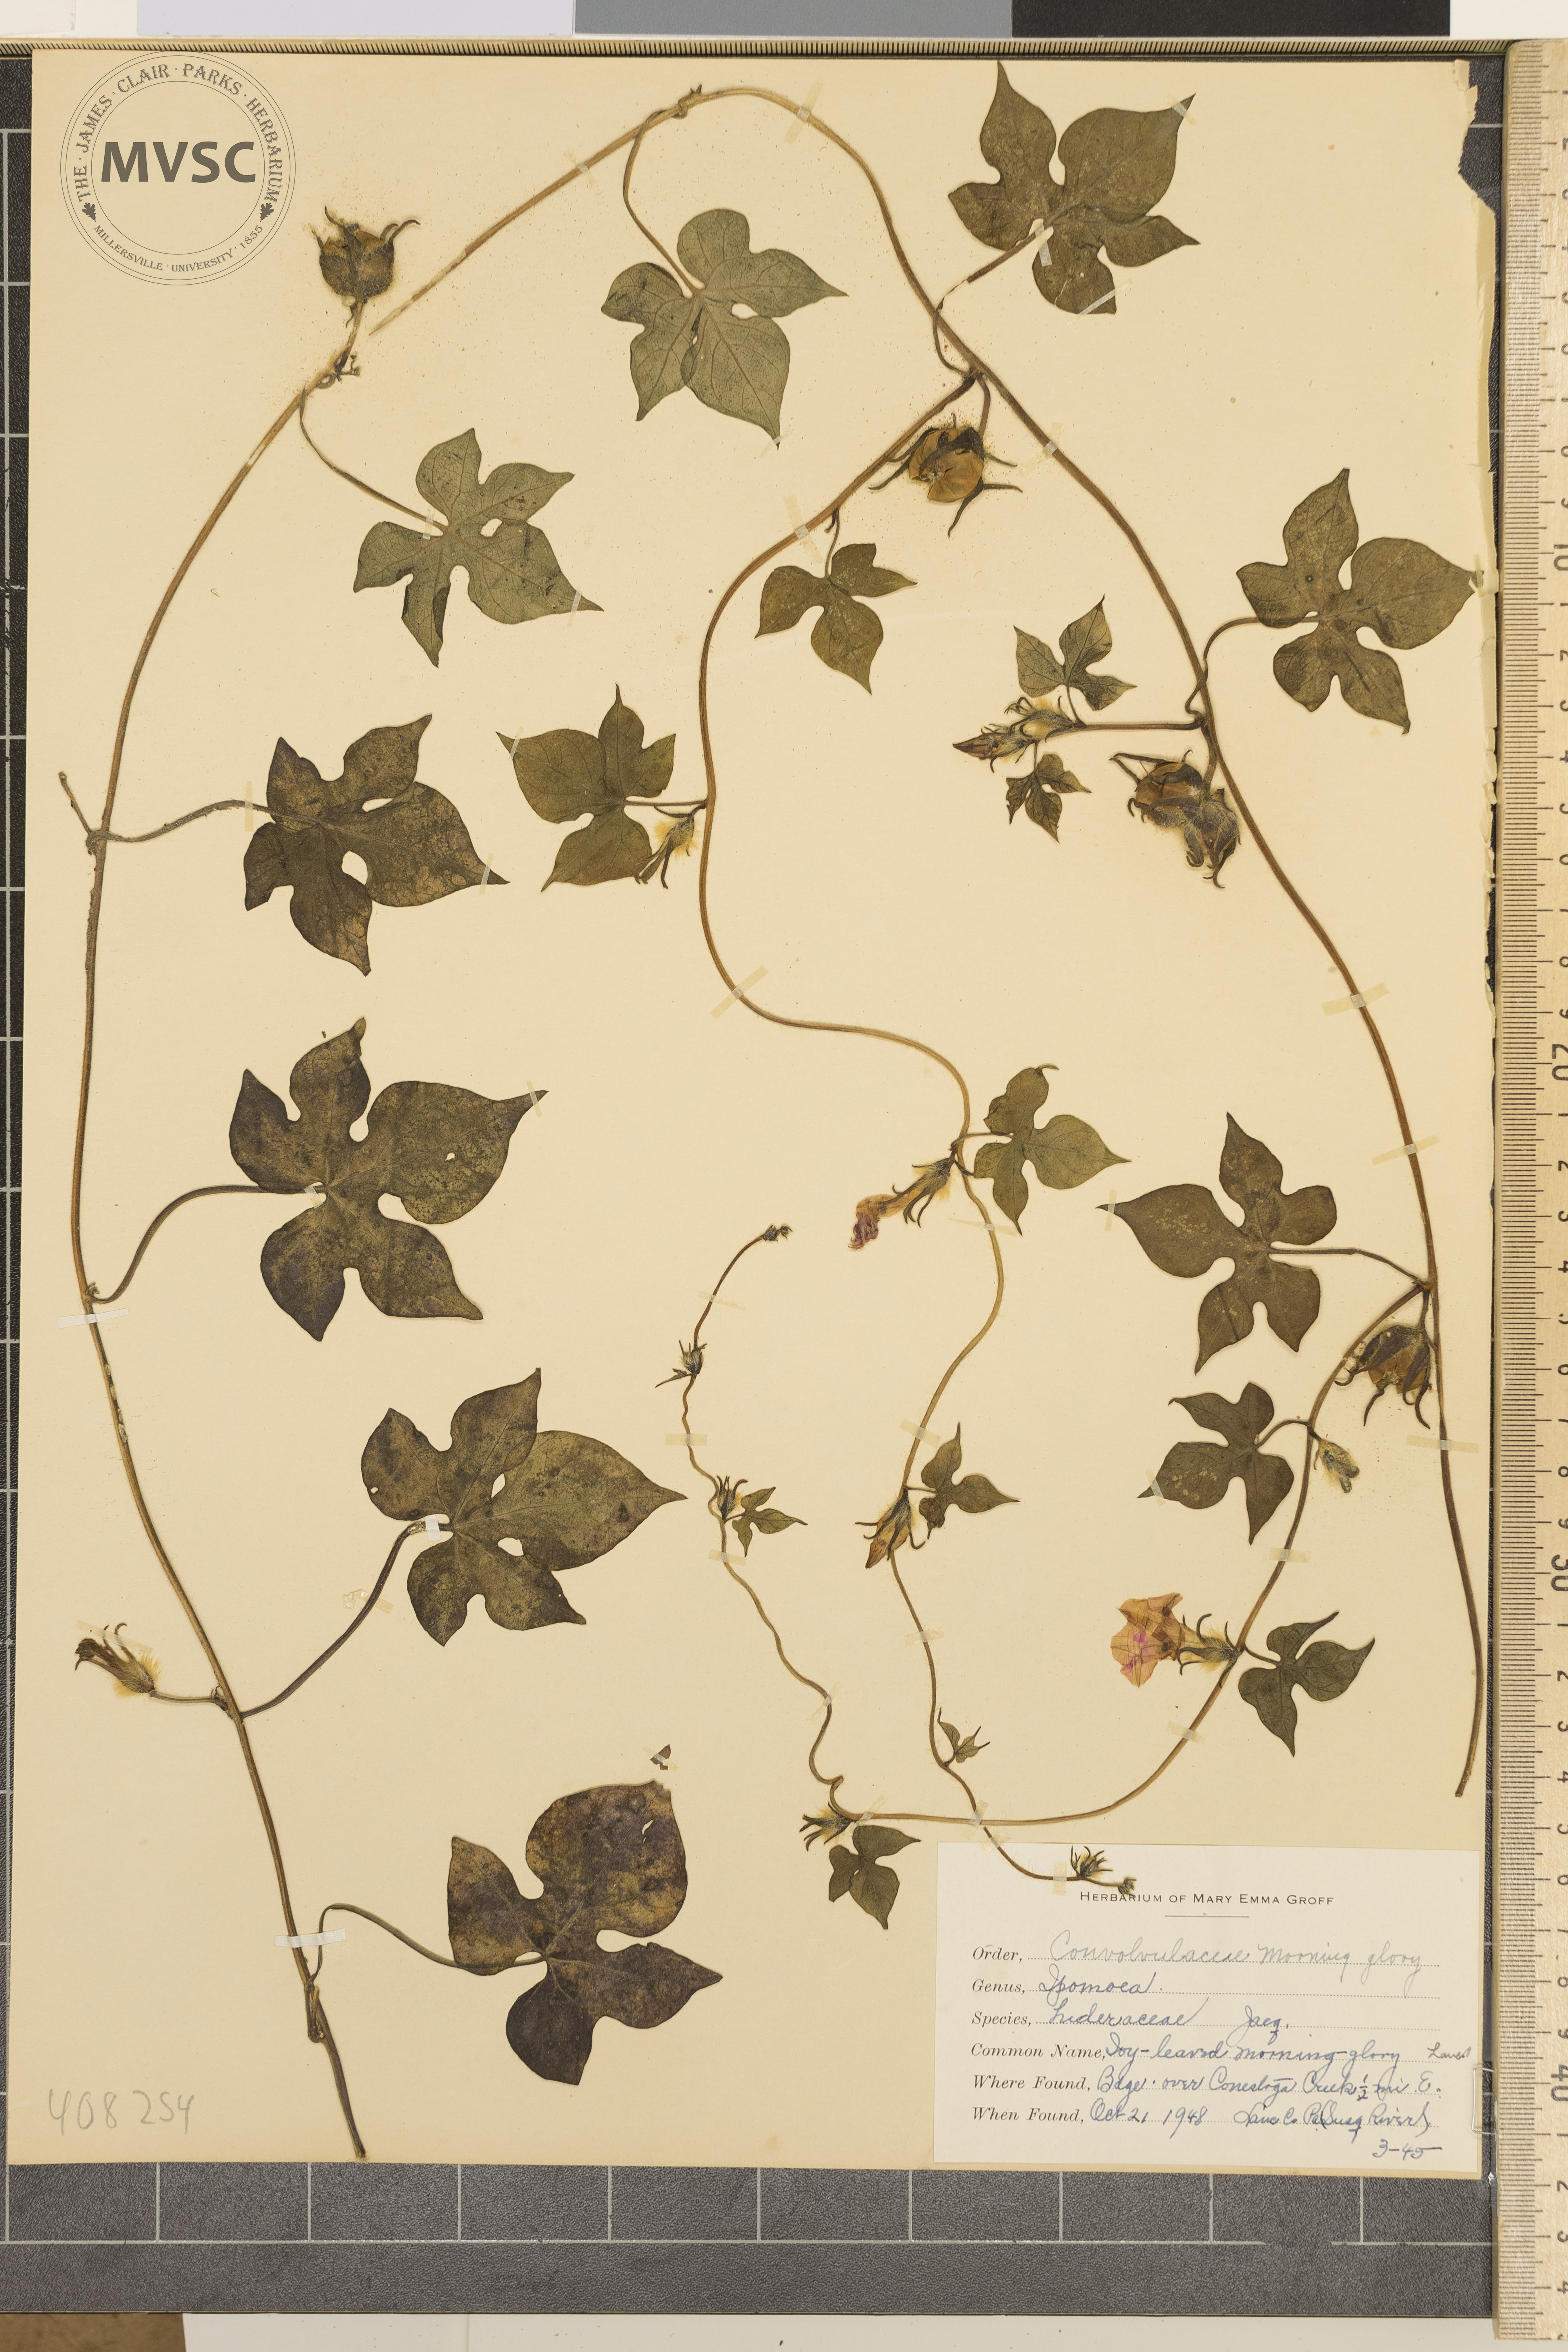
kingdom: Plantae
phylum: Tracheophyta
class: Magnoliopsida
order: Solanales
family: Convolvulaceae
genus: Ipomoea
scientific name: Ipomoea hederacea
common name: ivy-leaved morning glory
